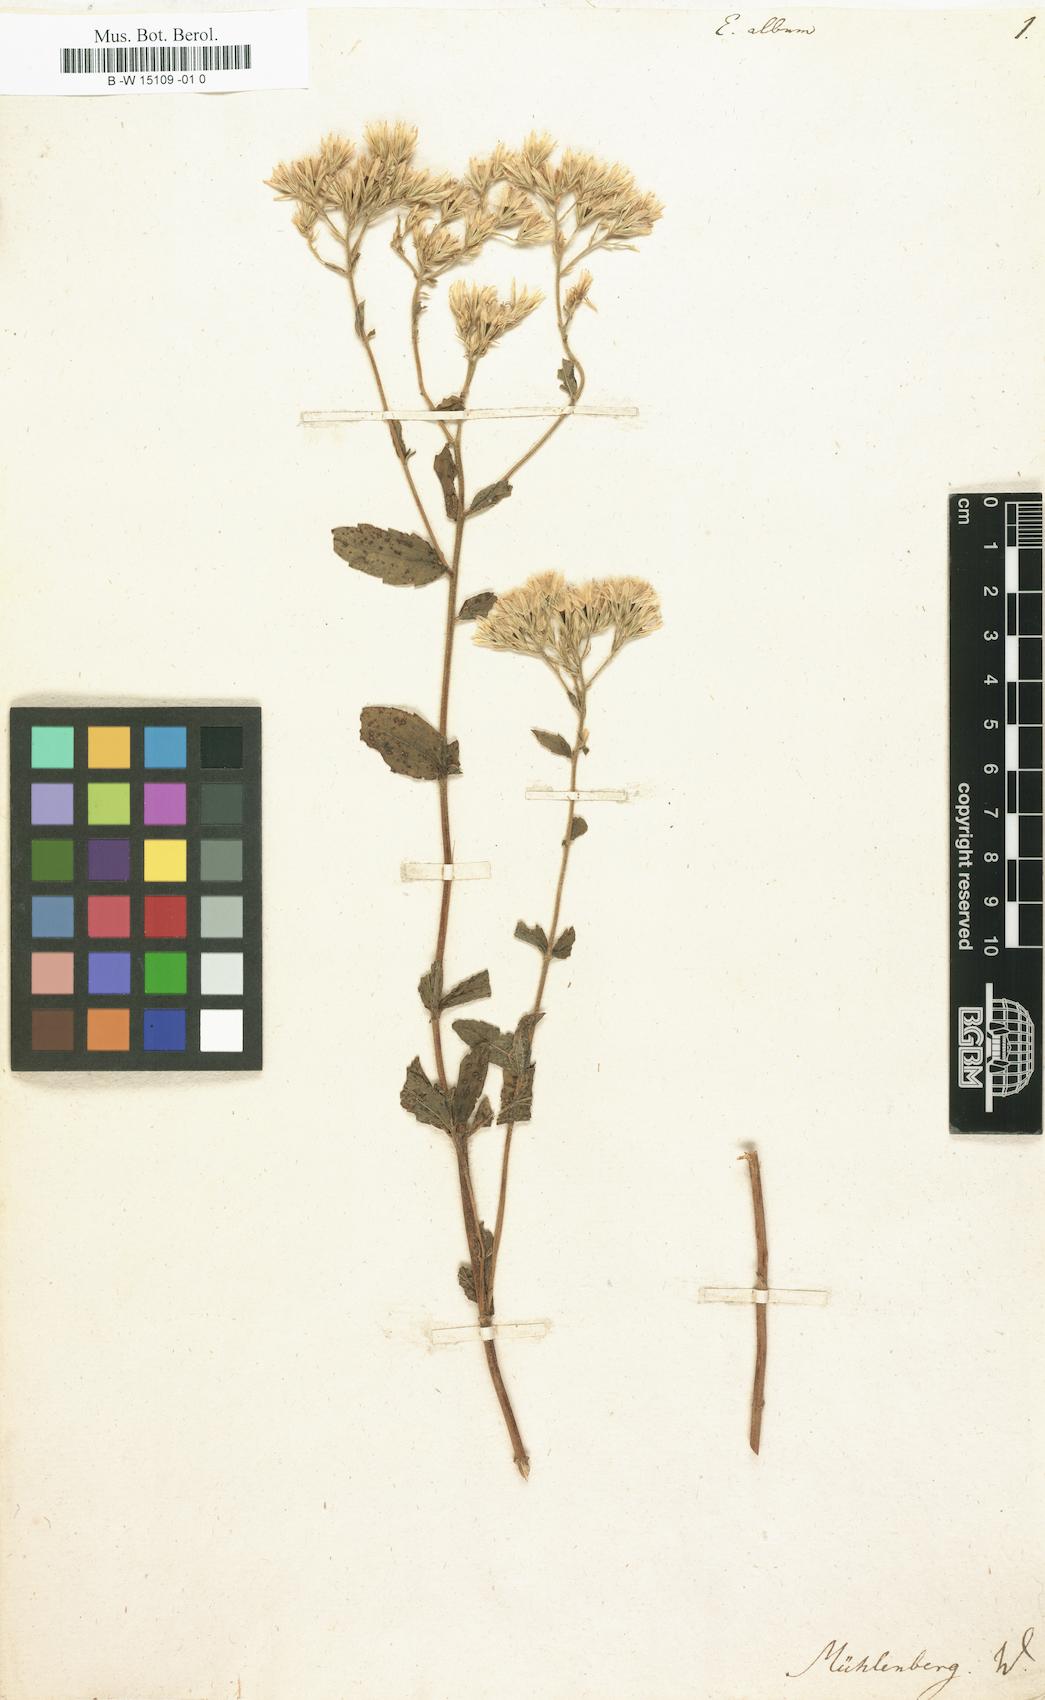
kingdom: Plantae
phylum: Tracheophyta
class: Magnoliopsida
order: Asterales
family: Asteraceae
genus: Eupatorium
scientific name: Eupatorium album
